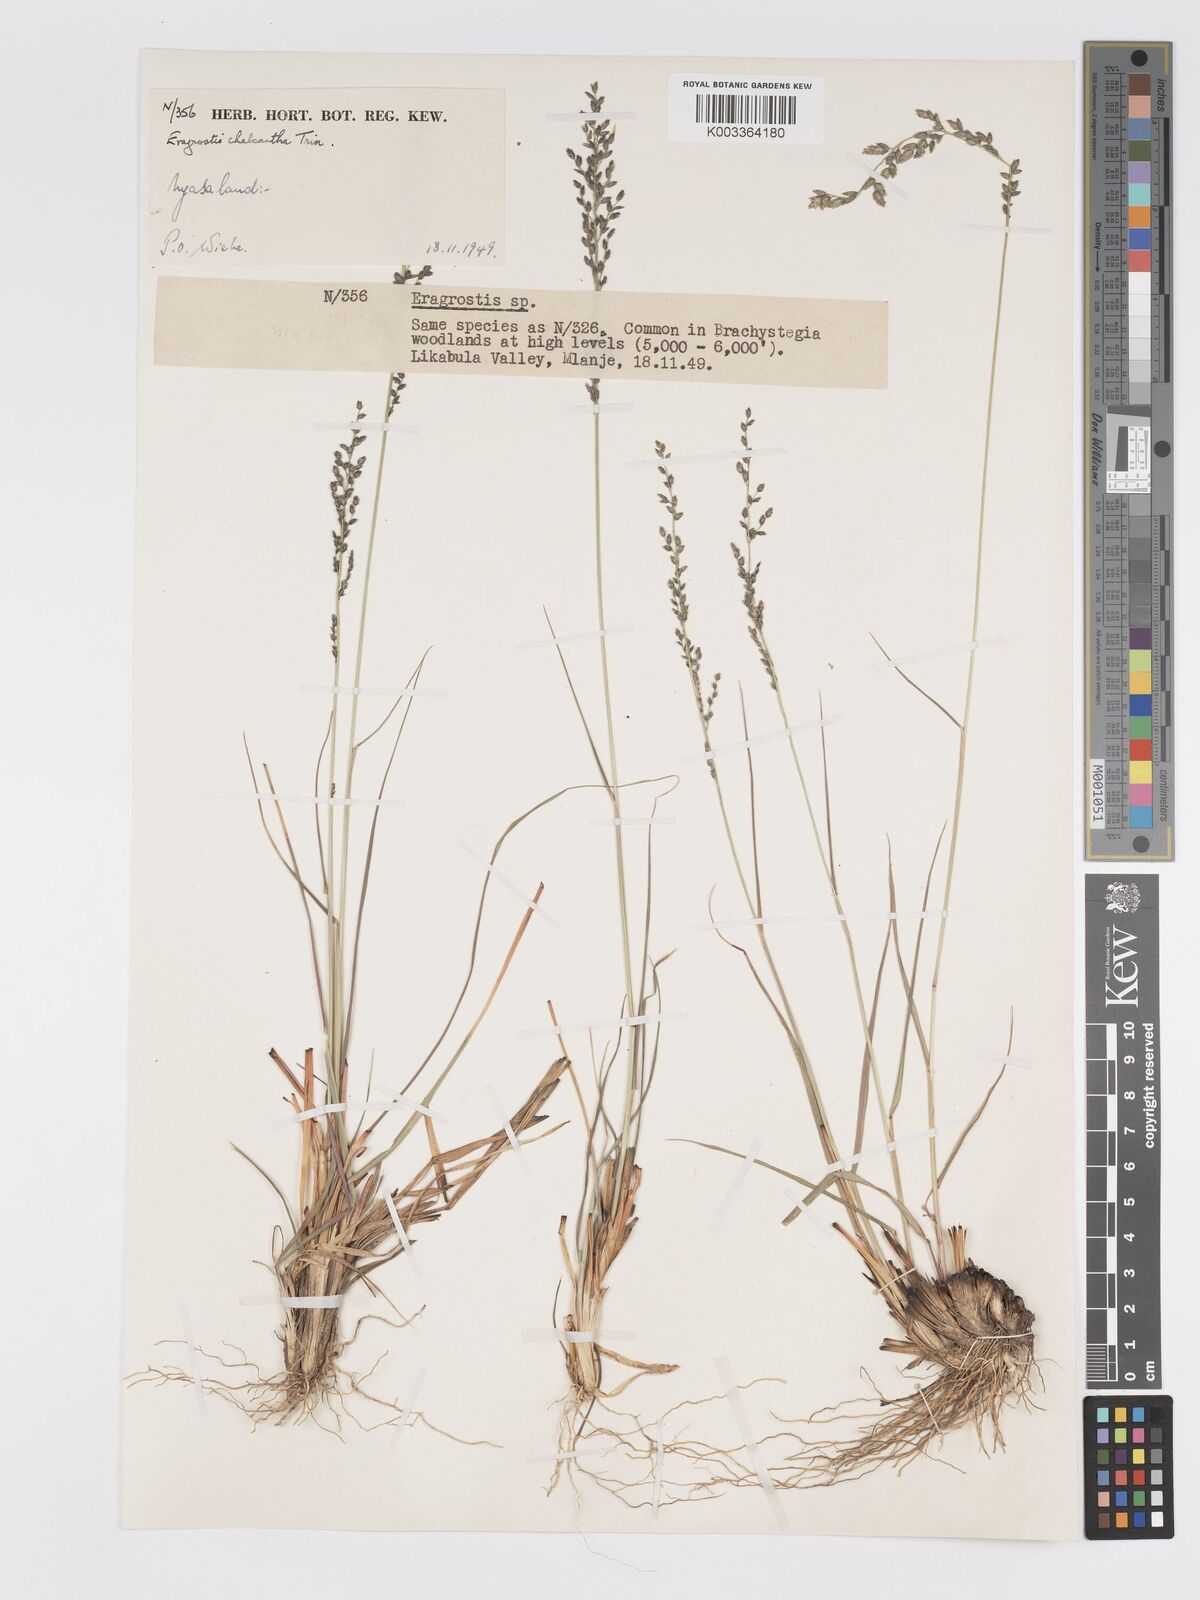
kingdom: Plantae
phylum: Tracheophyta
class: Liliopsida
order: Poales
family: Poaceae
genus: Eragrostis
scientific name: Eragrostis racemosa
